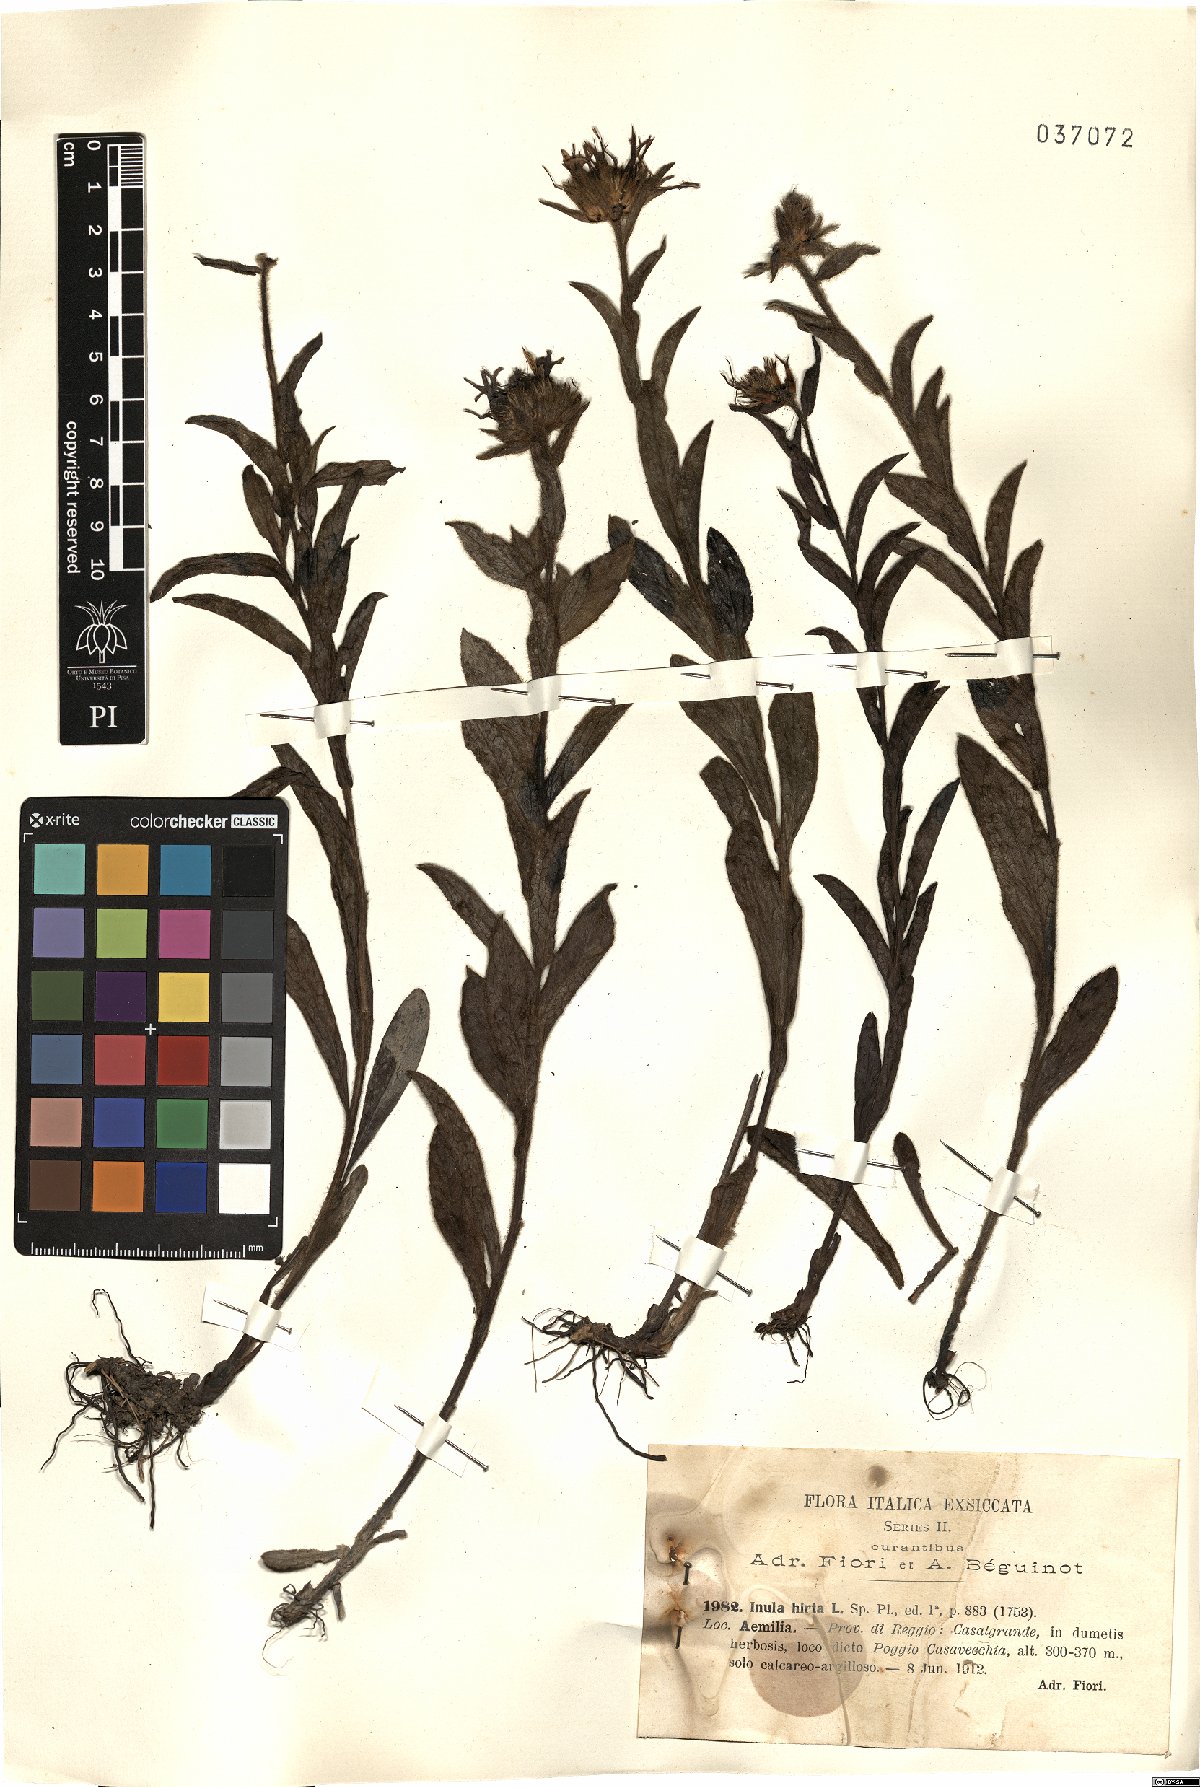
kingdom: Plantae
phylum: Tracheophyta
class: Magnoliopsida
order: Asterales
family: Asteraceae
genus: Pentanema
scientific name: Pentanema hirtum
